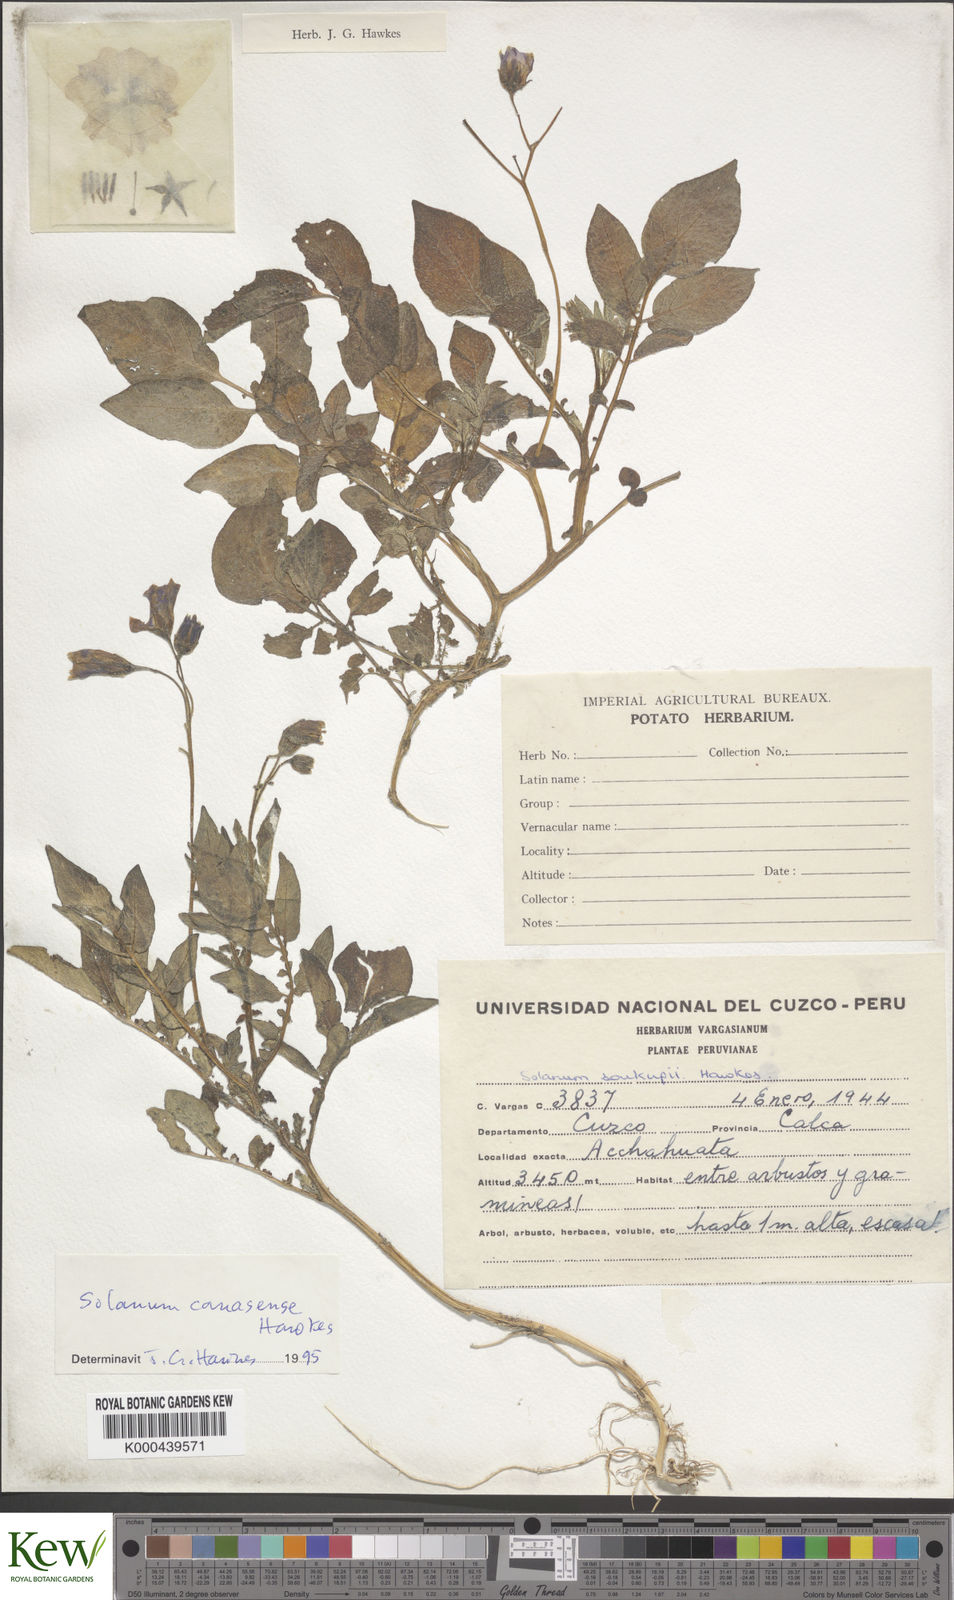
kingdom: Plantae
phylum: Tracheophyta
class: Magnoliopsida
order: Solanales
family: Solanaceae
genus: Solanum
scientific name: Solanum candolleanum
